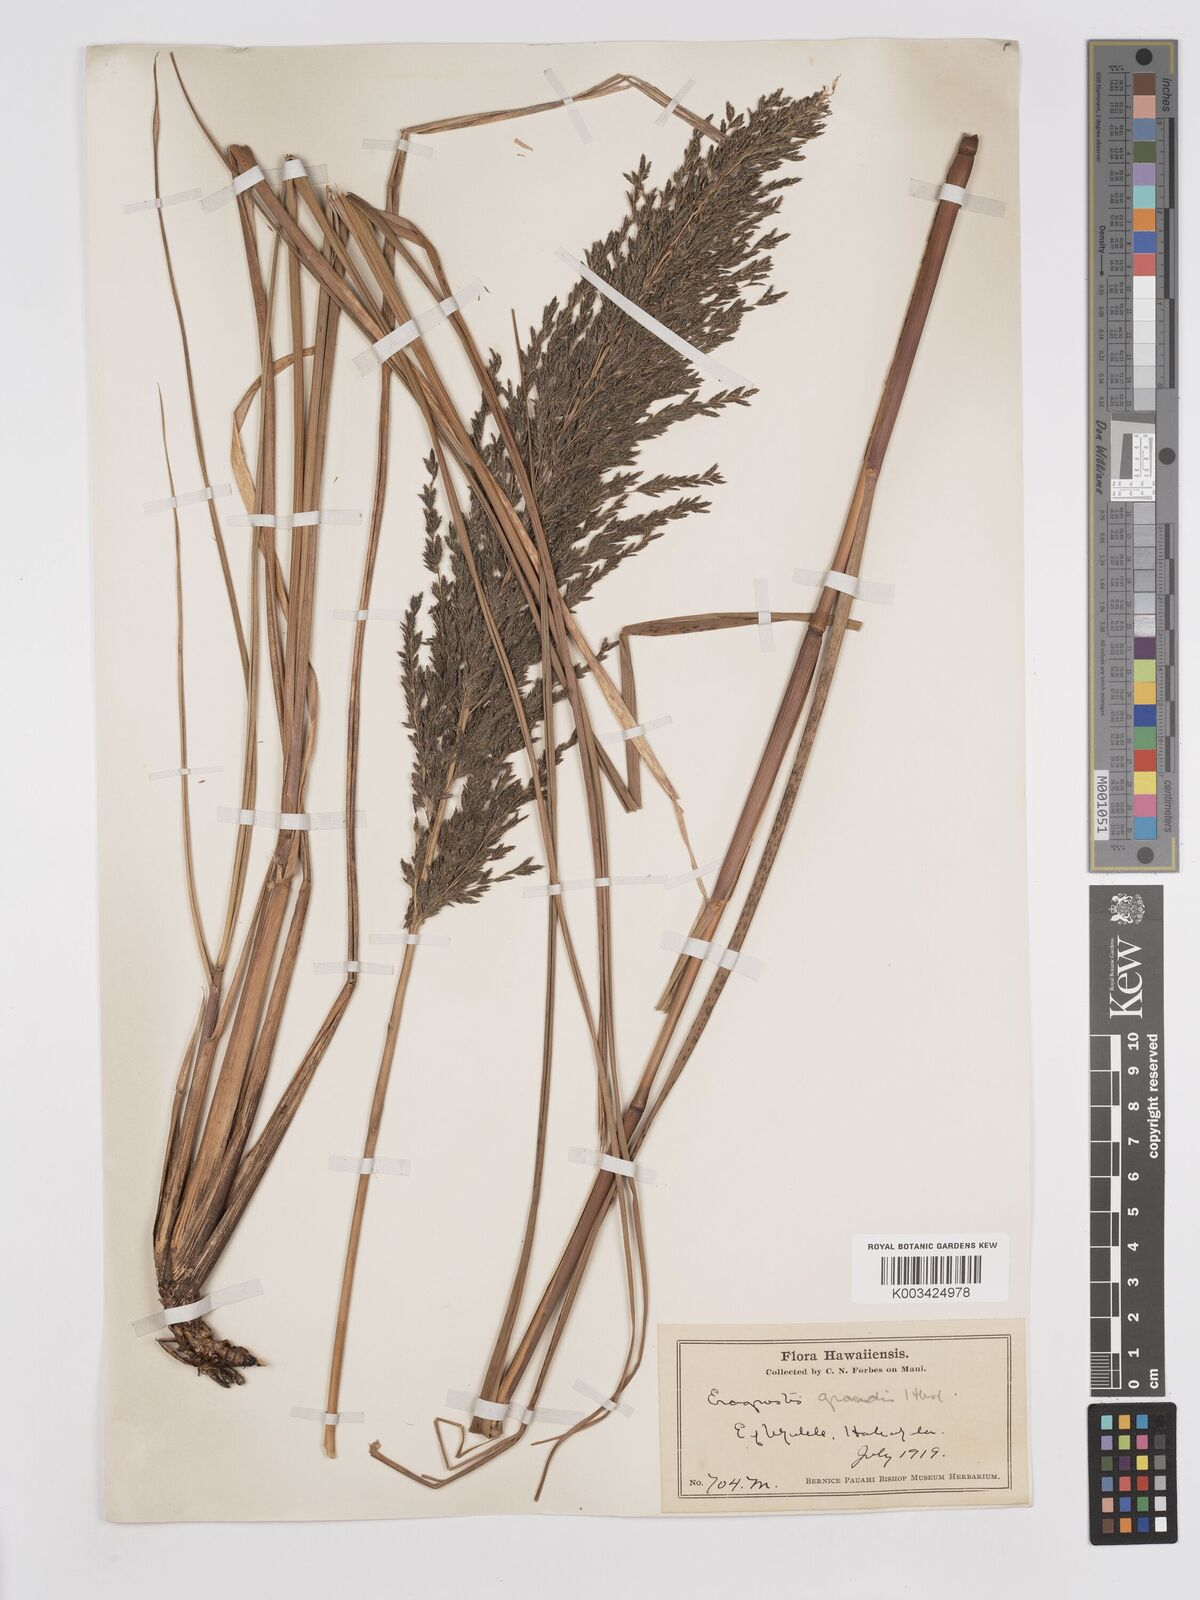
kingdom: Plantae
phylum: Tracheophyta
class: Liliopsida
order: Poales
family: Poaceae
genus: Eragrostis
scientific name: Eragrostis grandis
